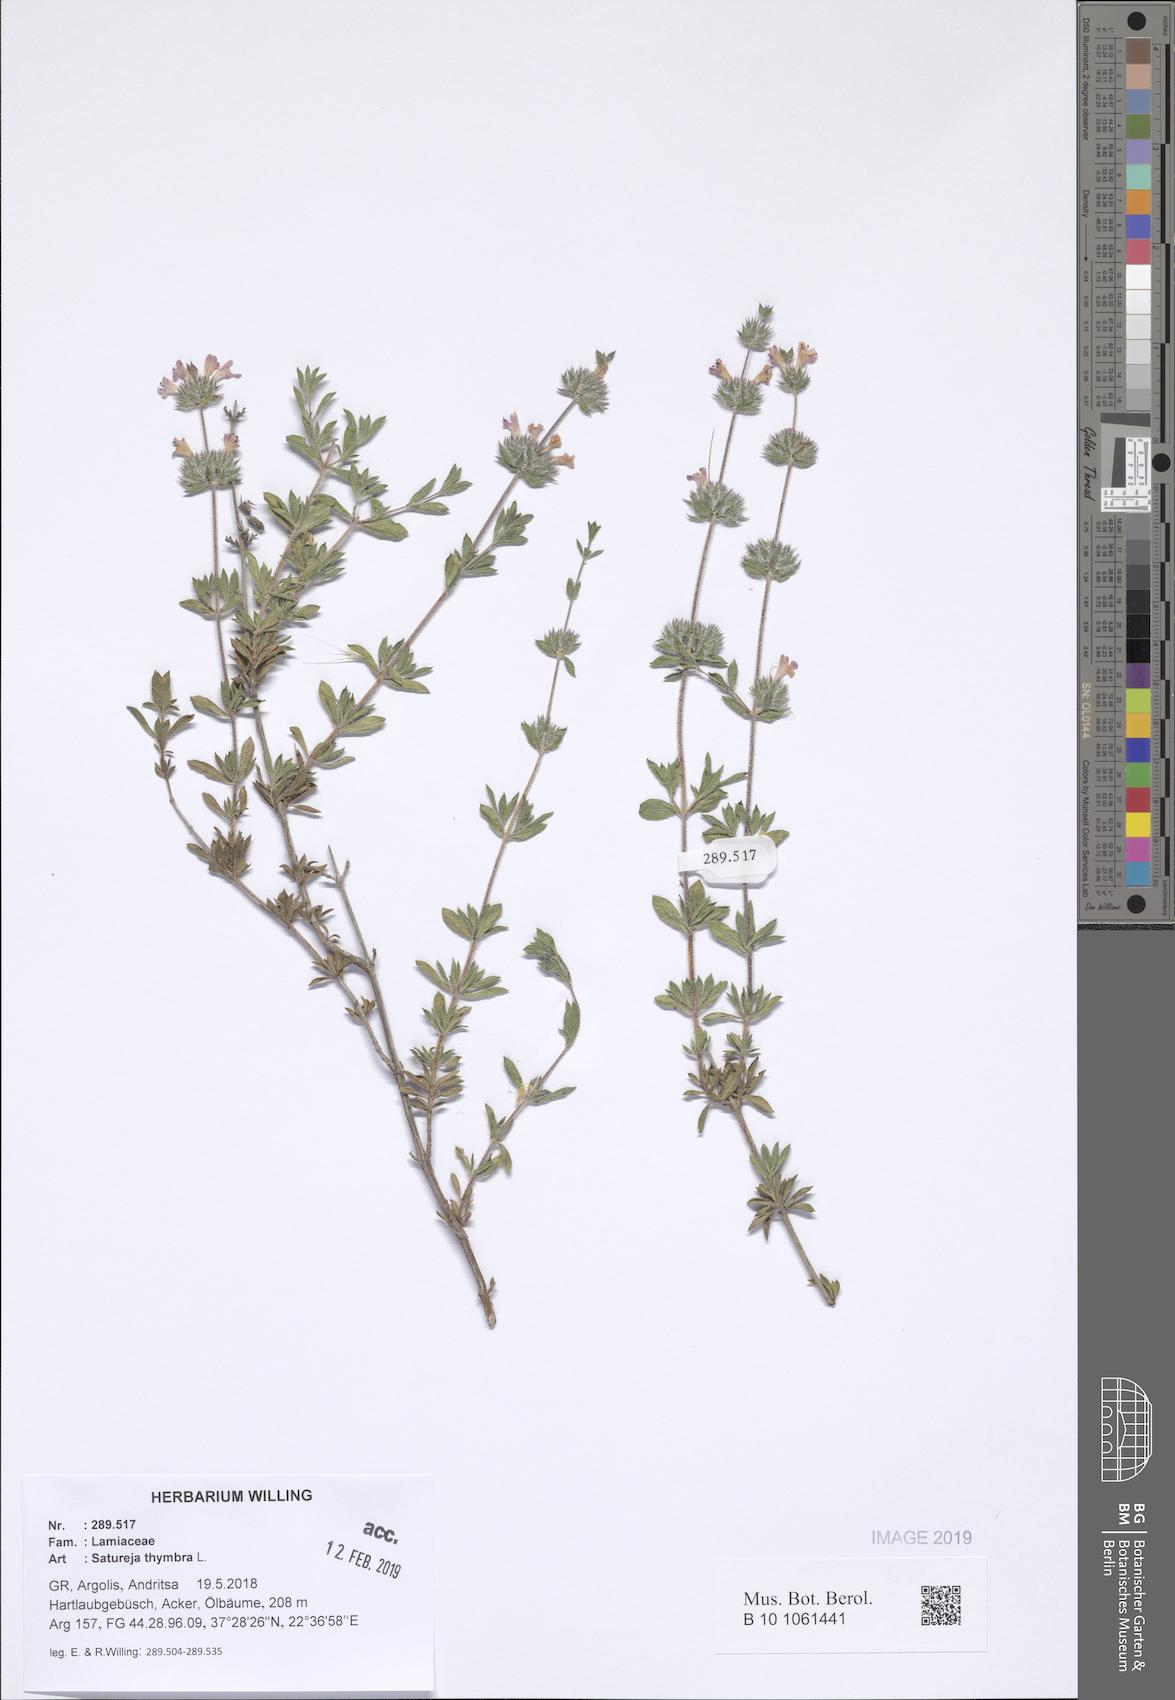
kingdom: Plantae
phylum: Tracheophyta
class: Magnoliopsida
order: Lamiales
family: Lamiaceae
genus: Satureja
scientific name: Satureja thymbra
